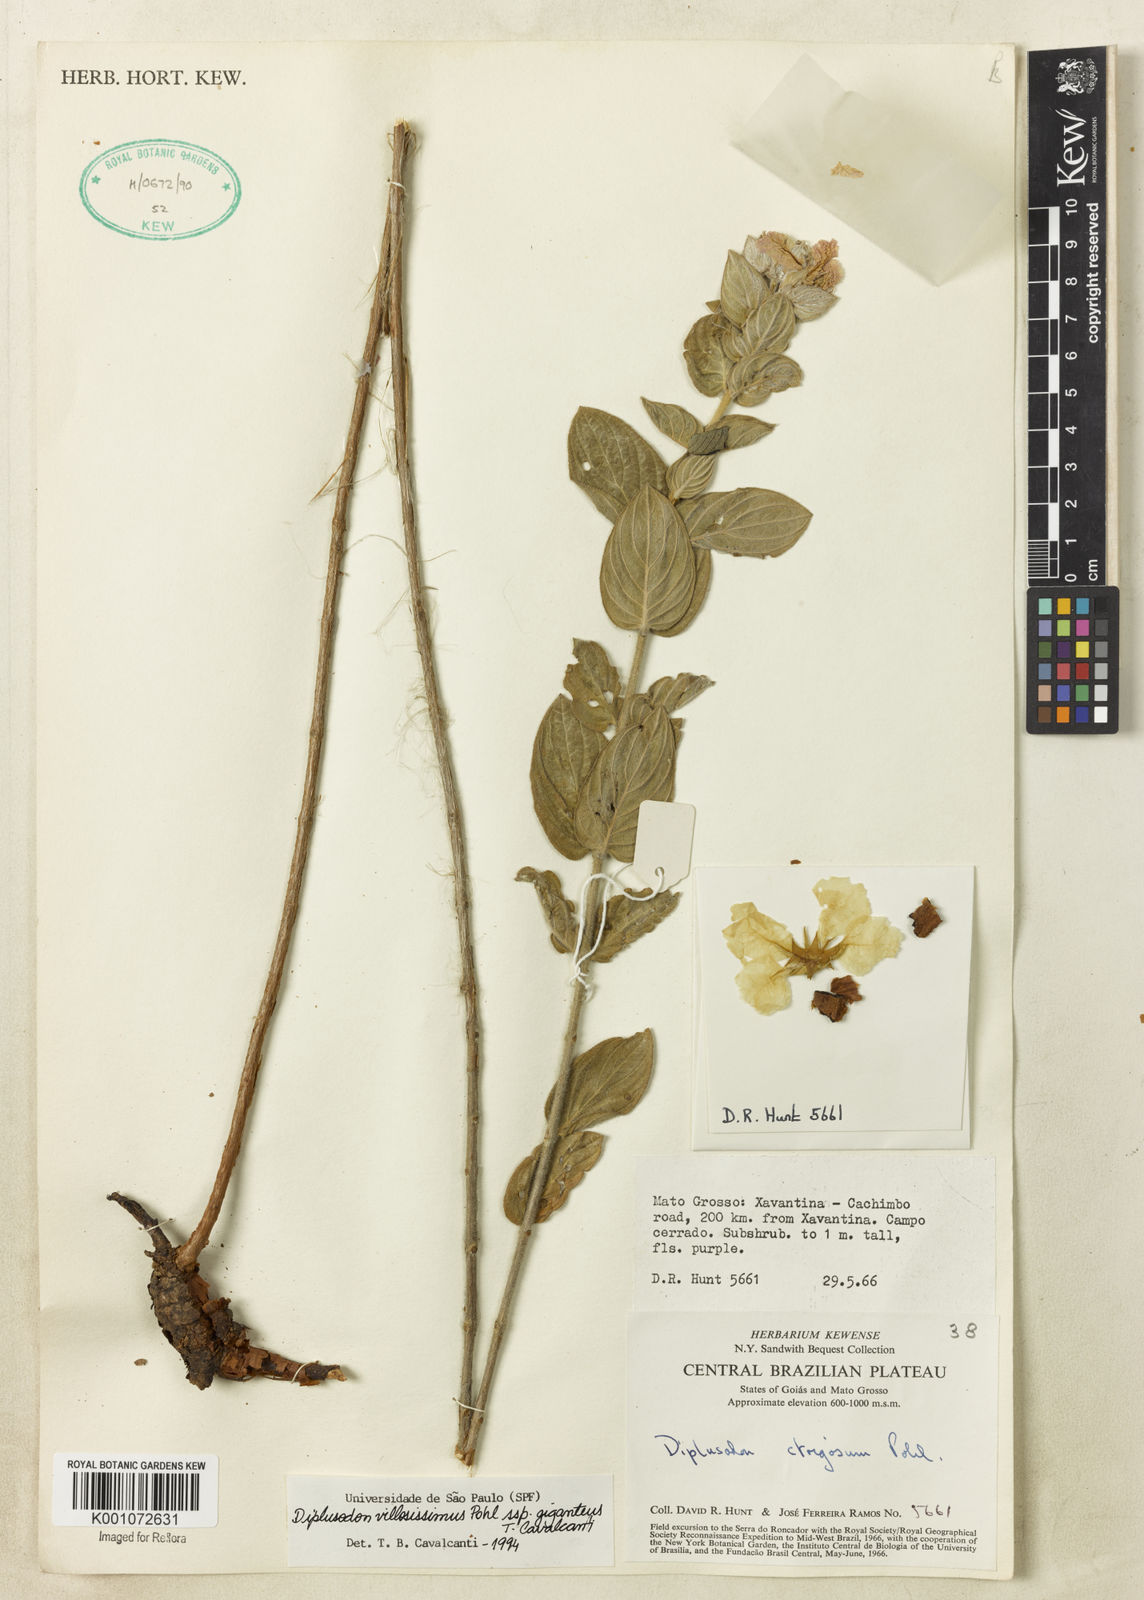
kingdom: Plantae
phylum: Tracheophyta
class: Magnoliopsida
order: Myrtales
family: Lythraceae
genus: Diplusodon
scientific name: Diplusodon villosissimus
